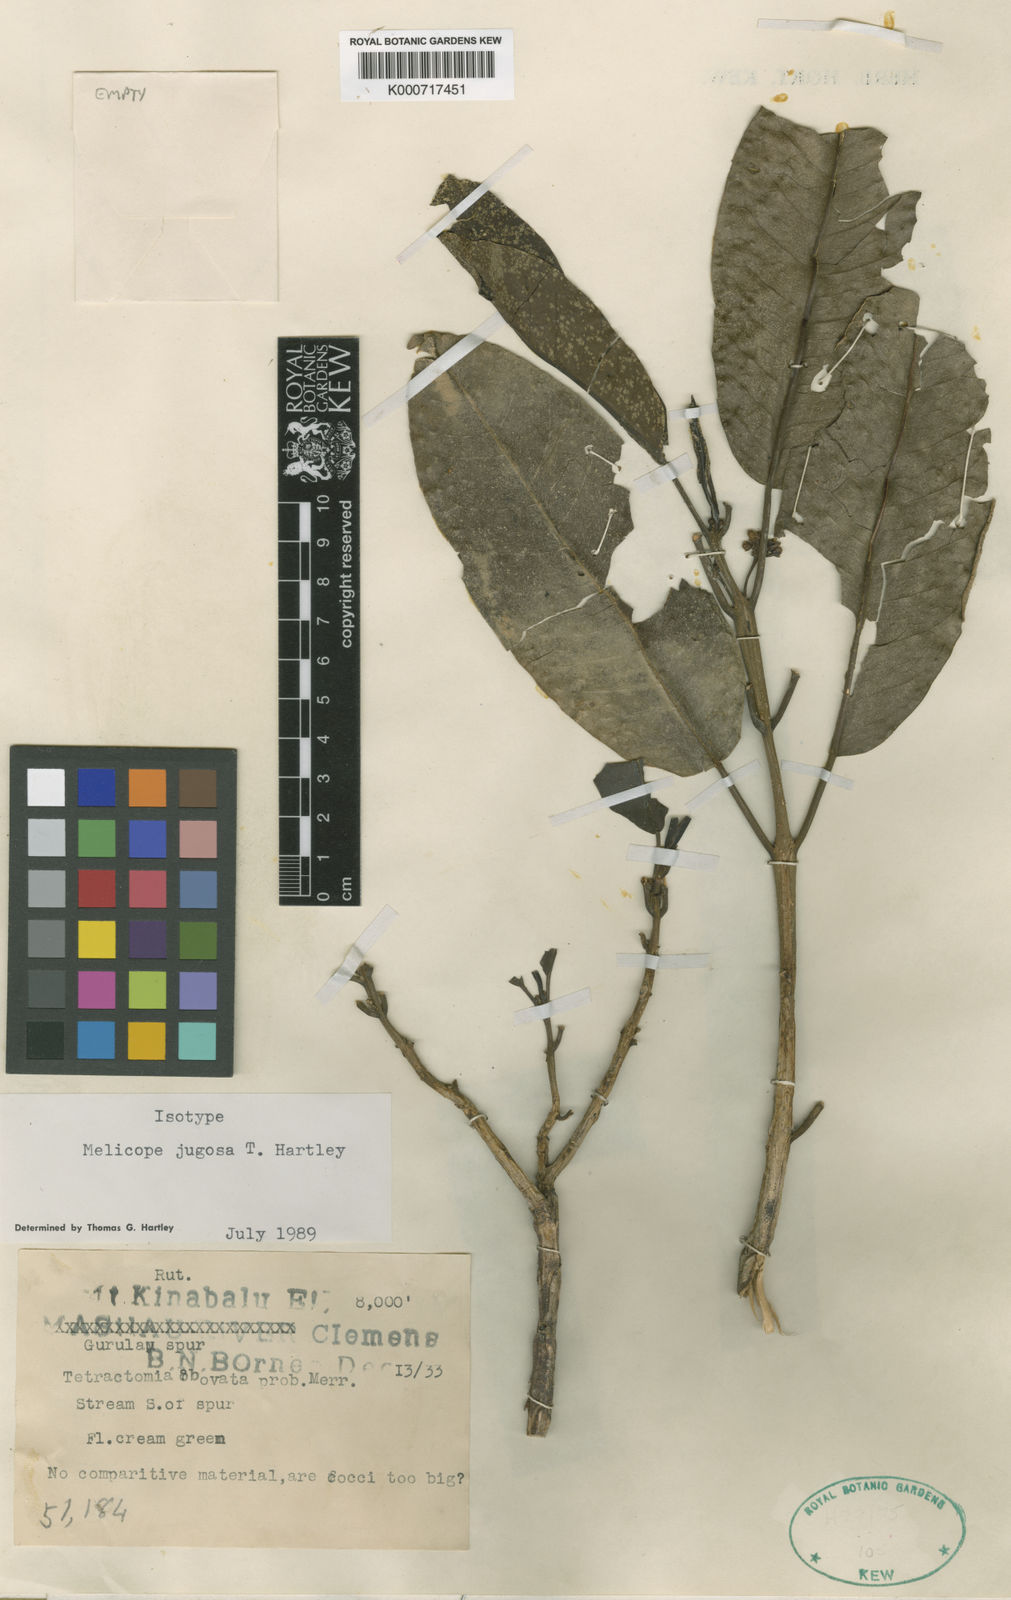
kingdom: Plantae
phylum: Tracheophyta
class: Magnoliopsida
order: Sapindales
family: Rutaceae
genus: Melicope
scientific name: Melicope jugosa
